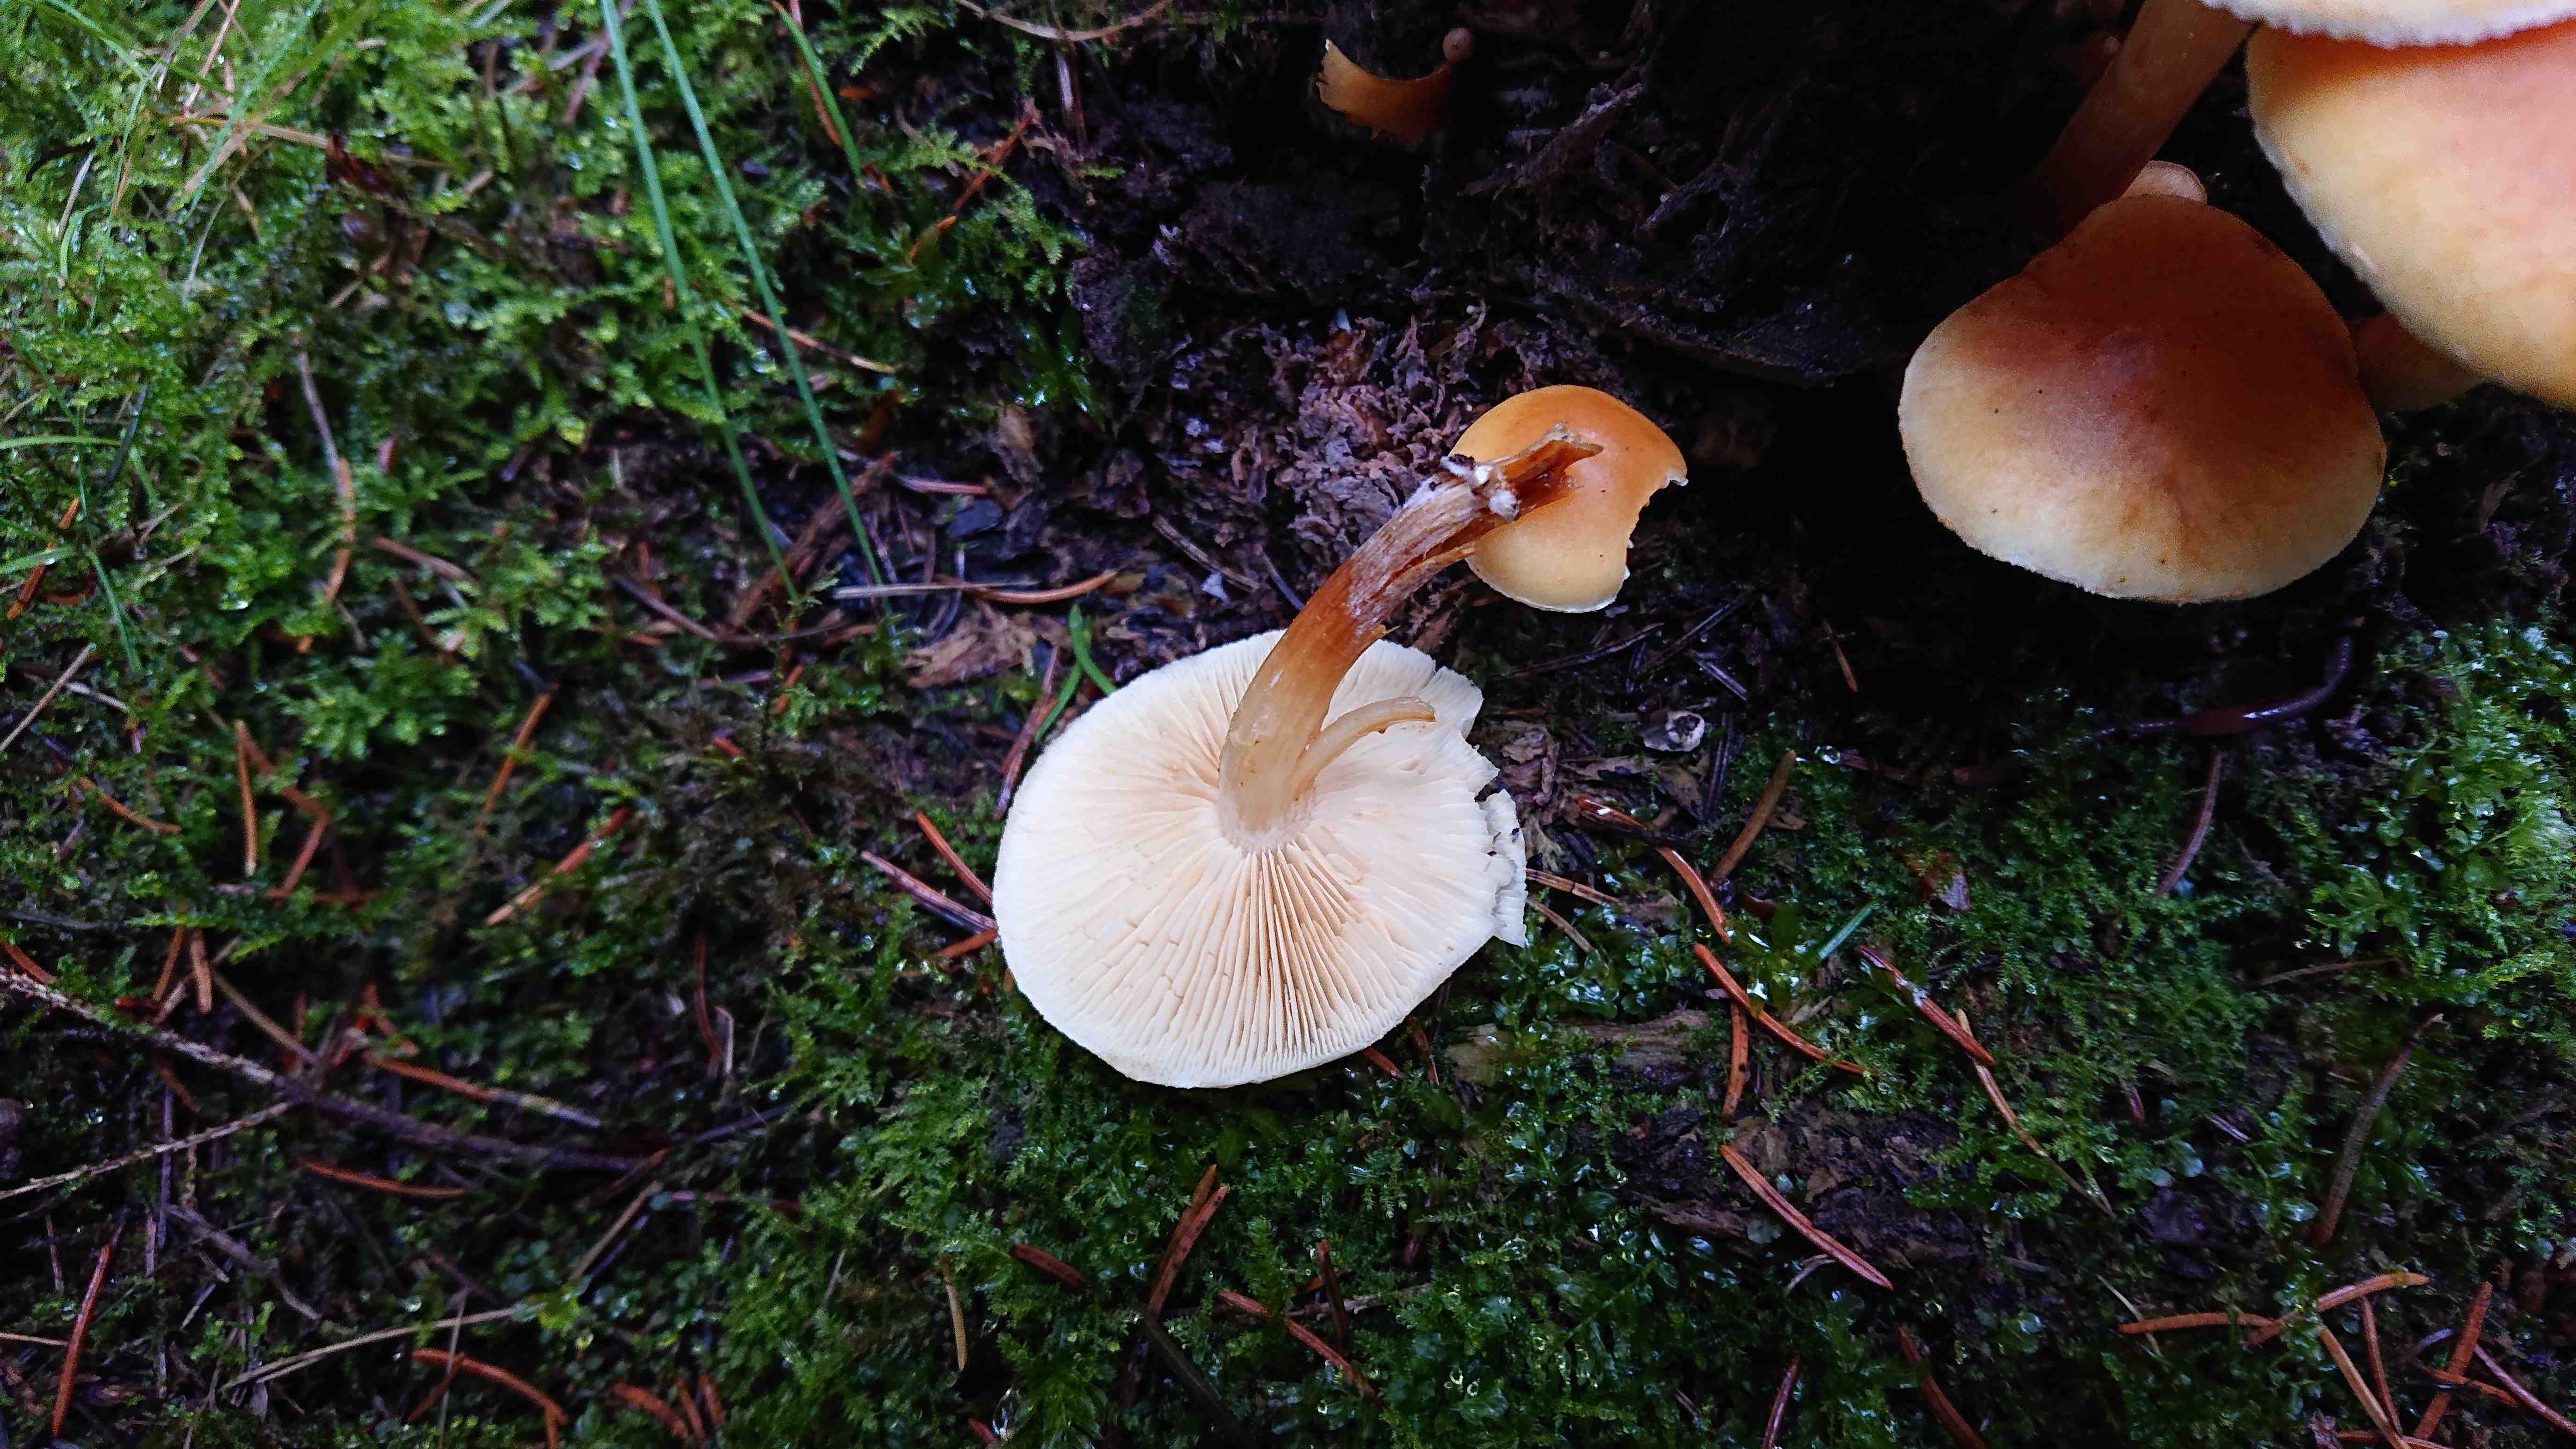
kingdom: Fungi
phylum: Basidiomycota
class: Agaricomycetes
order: Agaricales
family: Hymenogastraceae
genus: Gymnopilus
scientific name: Gymnopilus penetrans
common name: plettet flammehat
